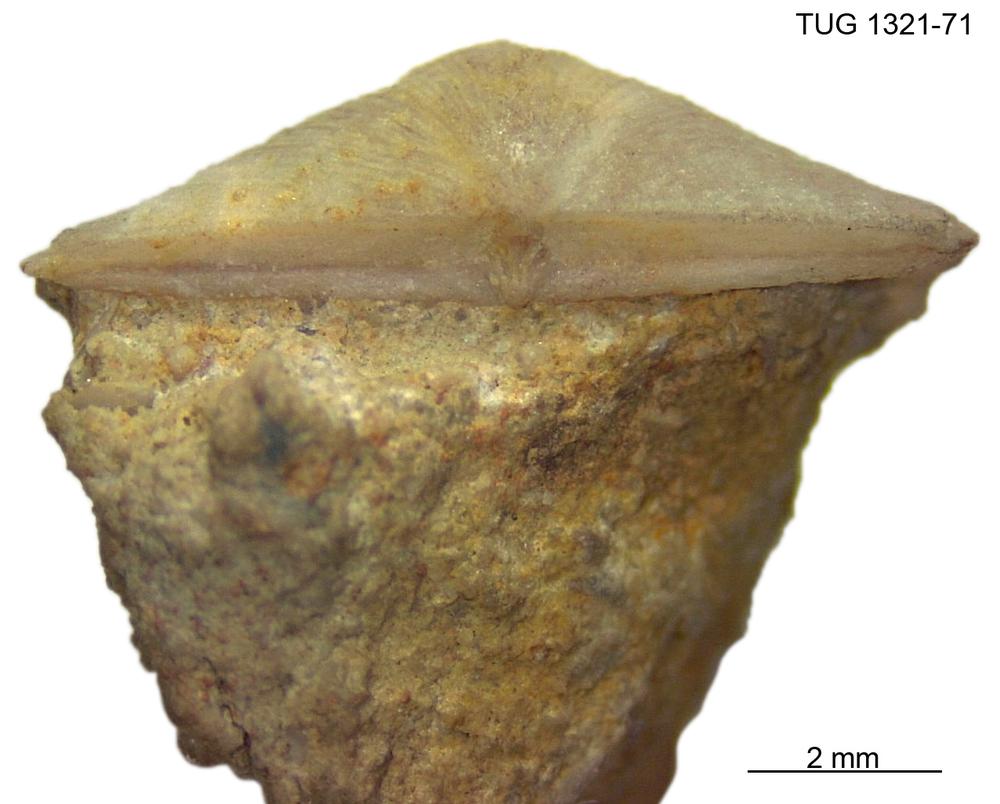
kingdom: Animalia
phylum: Brachiopoda
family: Sowerbyellidae
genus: Sowerbyella
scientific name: Sowerbyella minima
